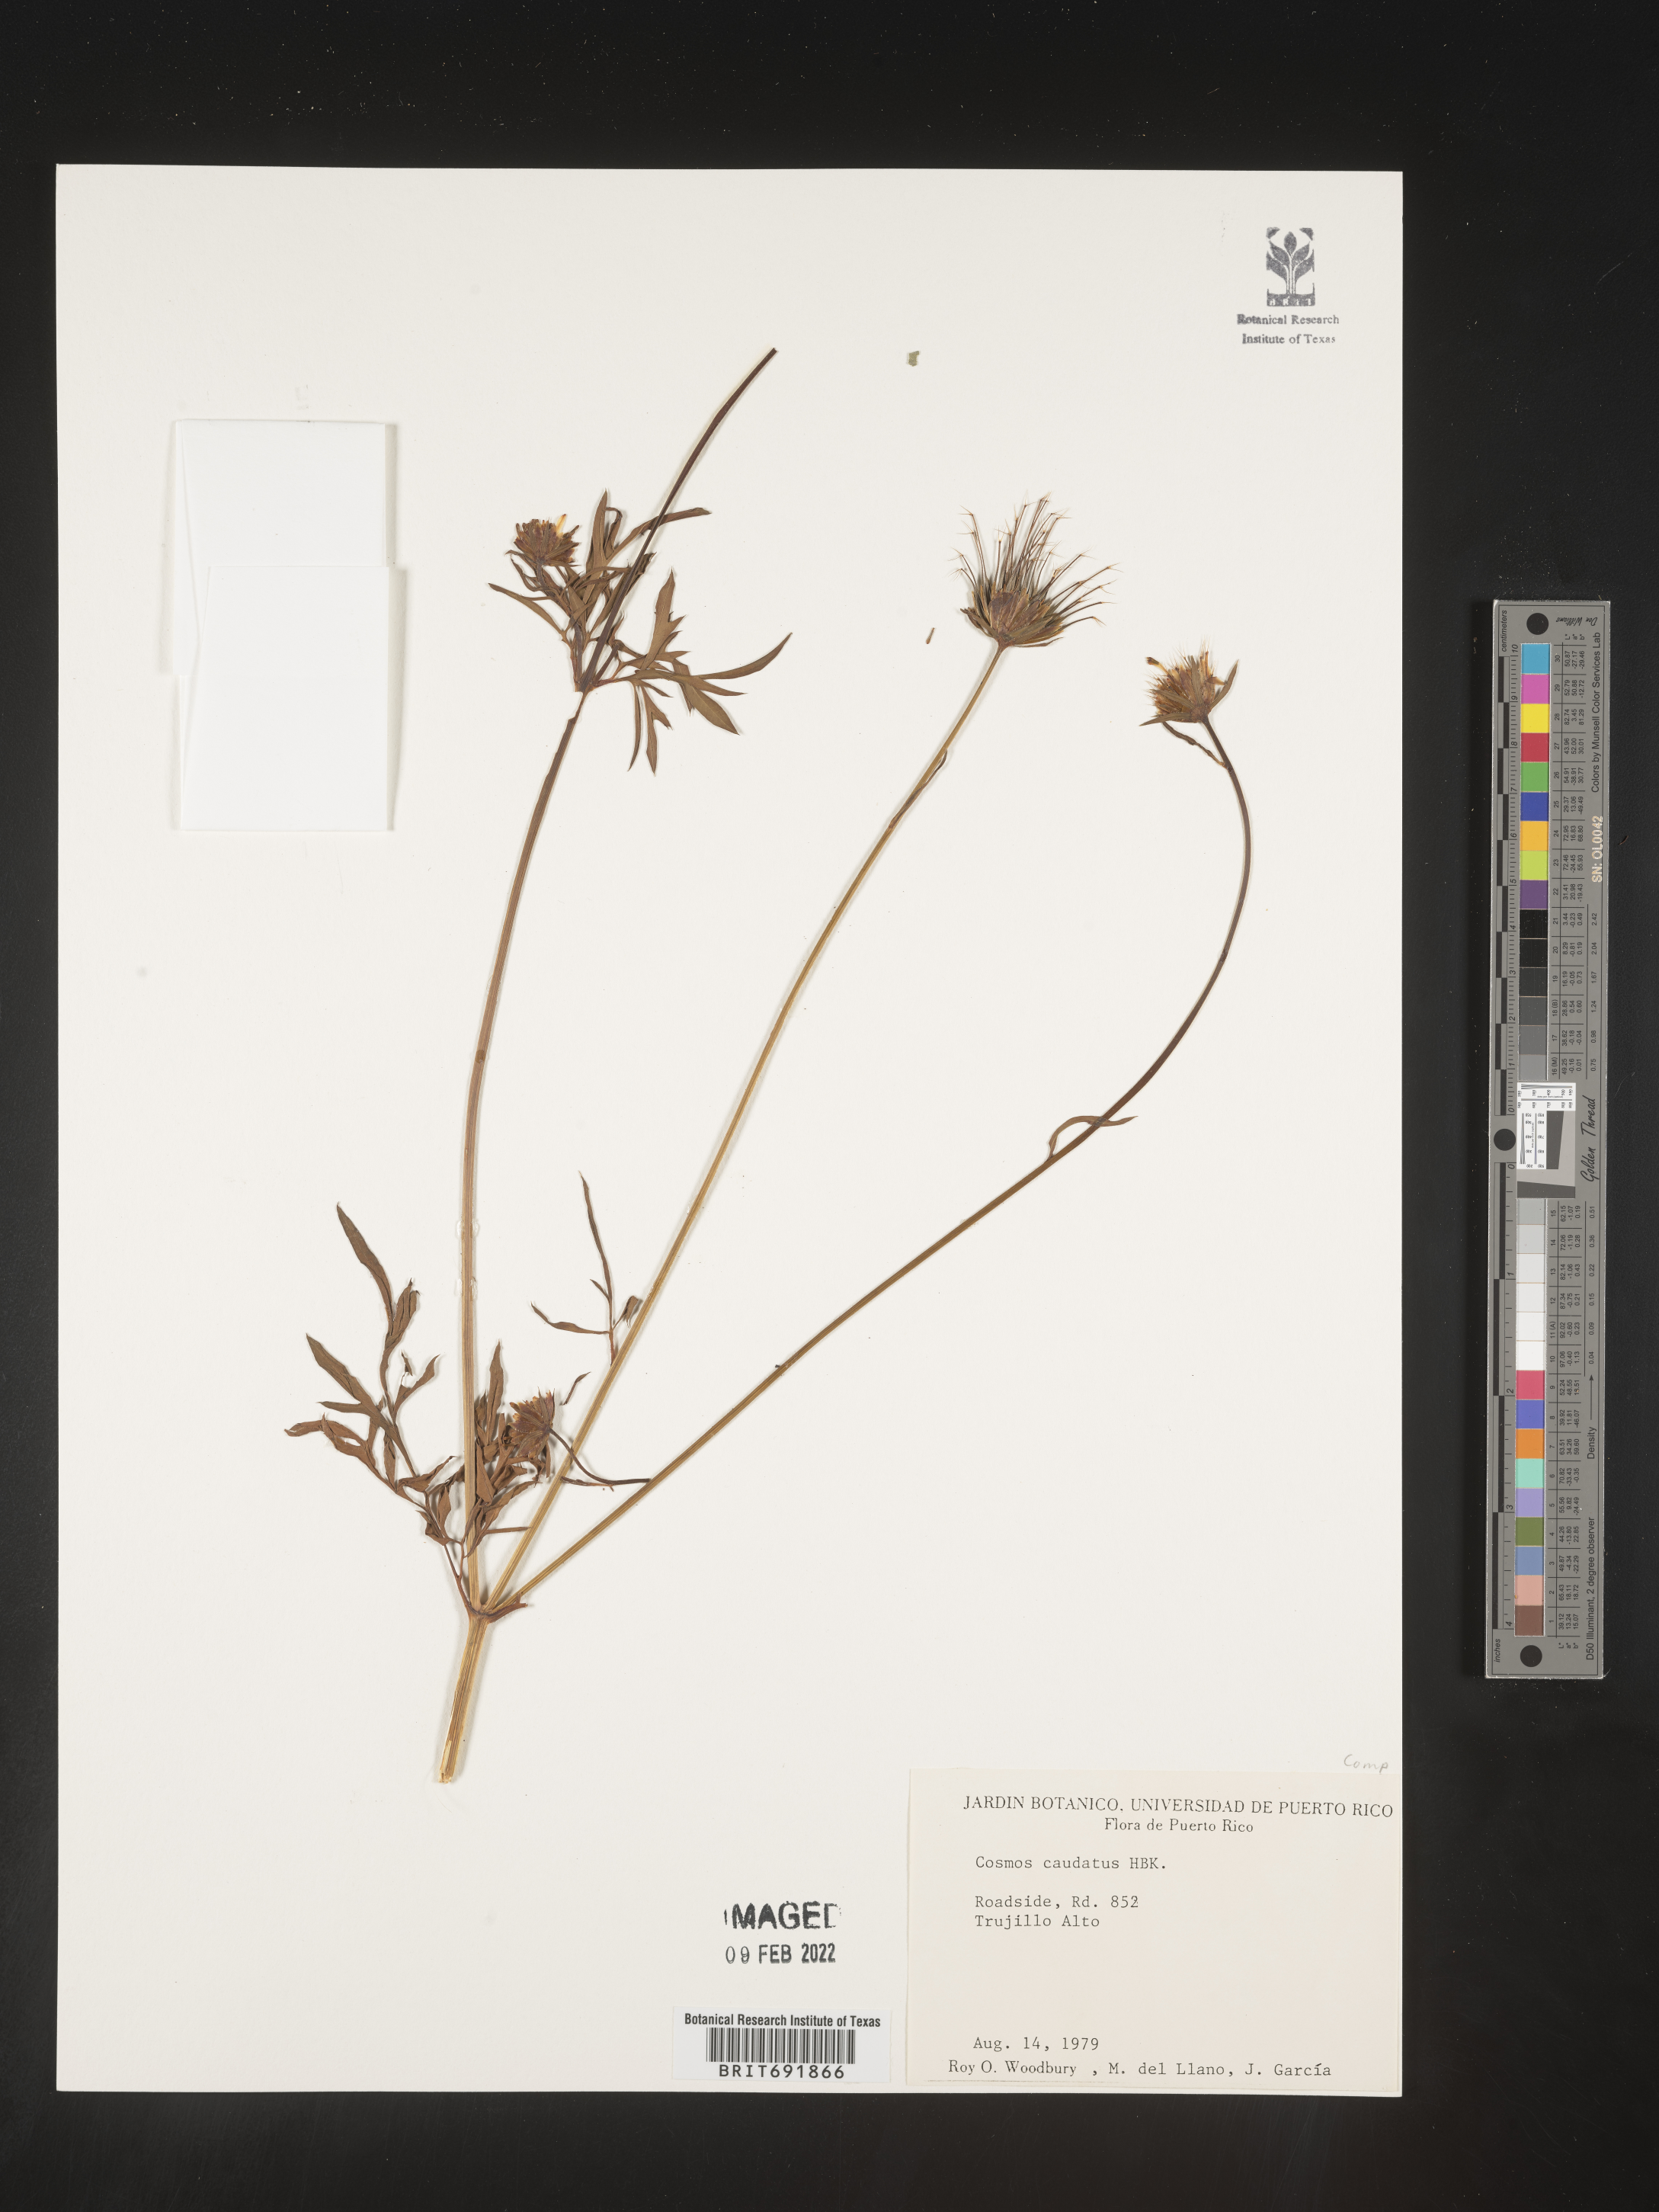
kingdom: Plantae
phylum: Tracheophyta
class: Magnoliopsida
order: Asterales
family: Asteraceae
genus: Cosmos
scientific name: Cosmos
